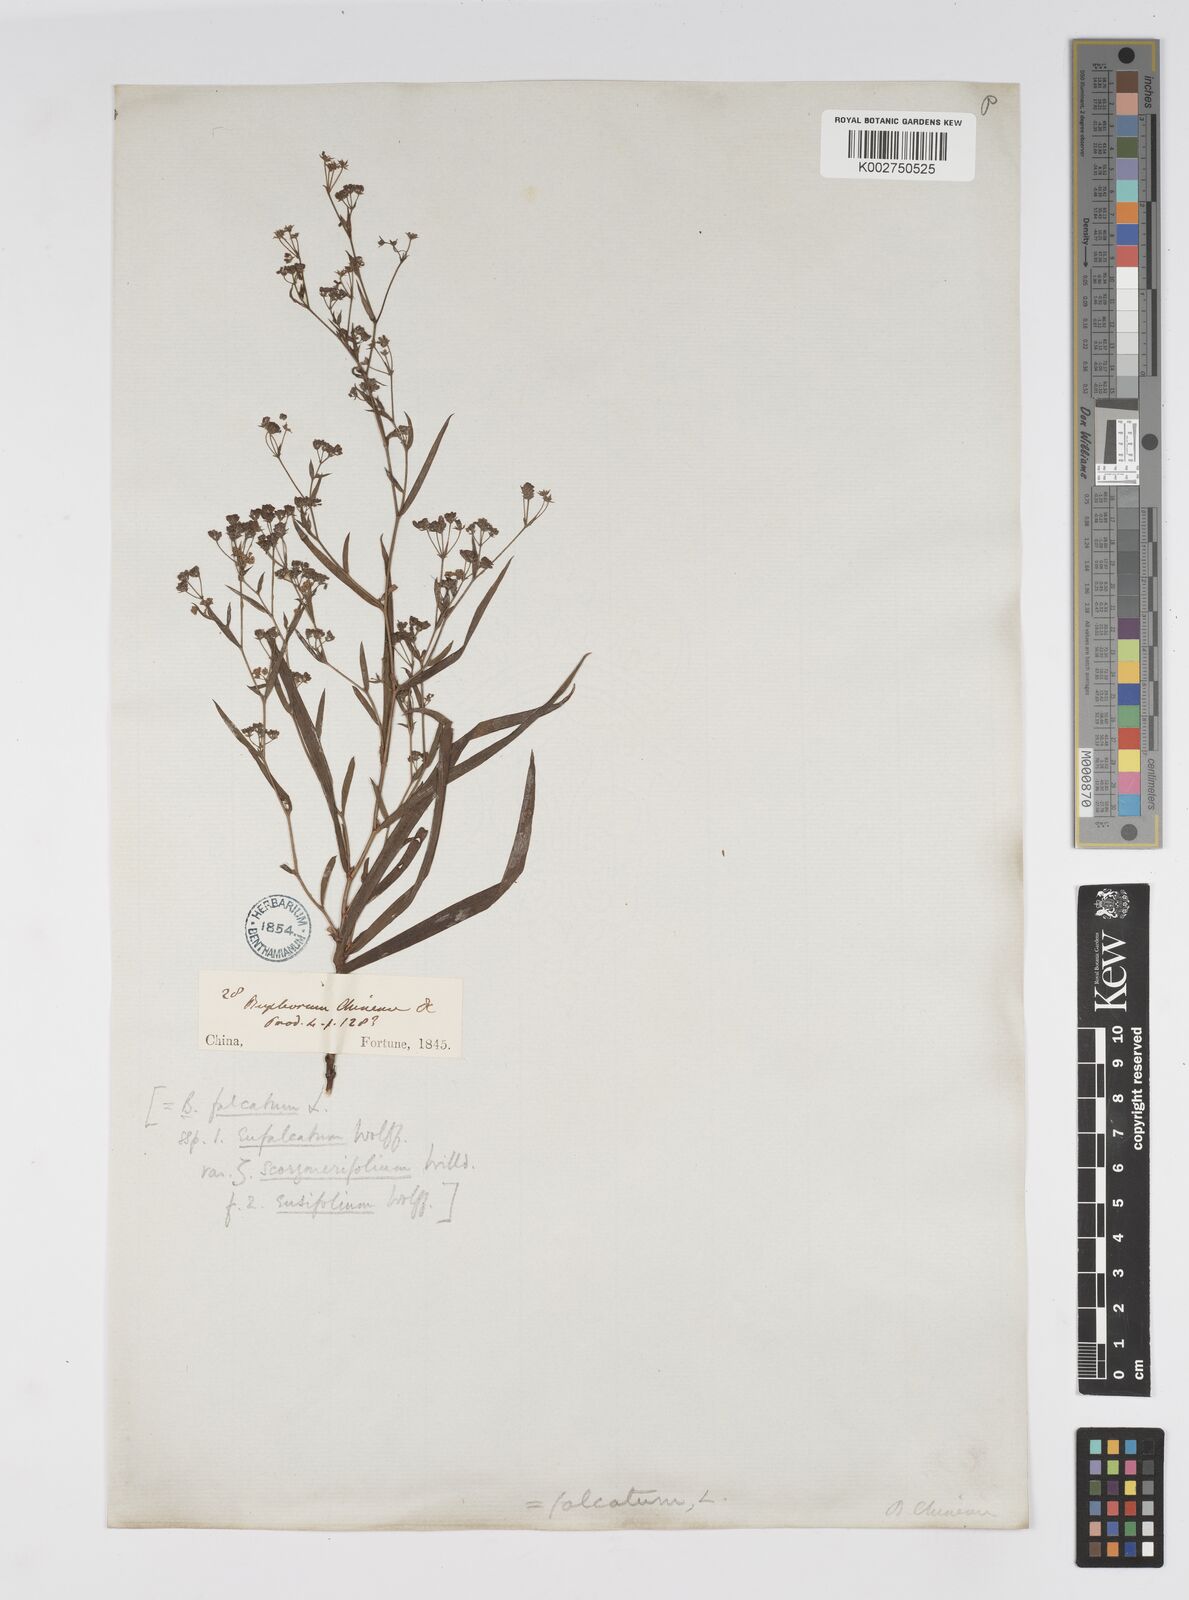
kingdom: Plantae
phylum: Tracheophyta
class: Magnoliopsida
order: Apiales
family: Apiaceae
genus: Bupleurum
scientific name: Bupleurum scorzonerifolium
